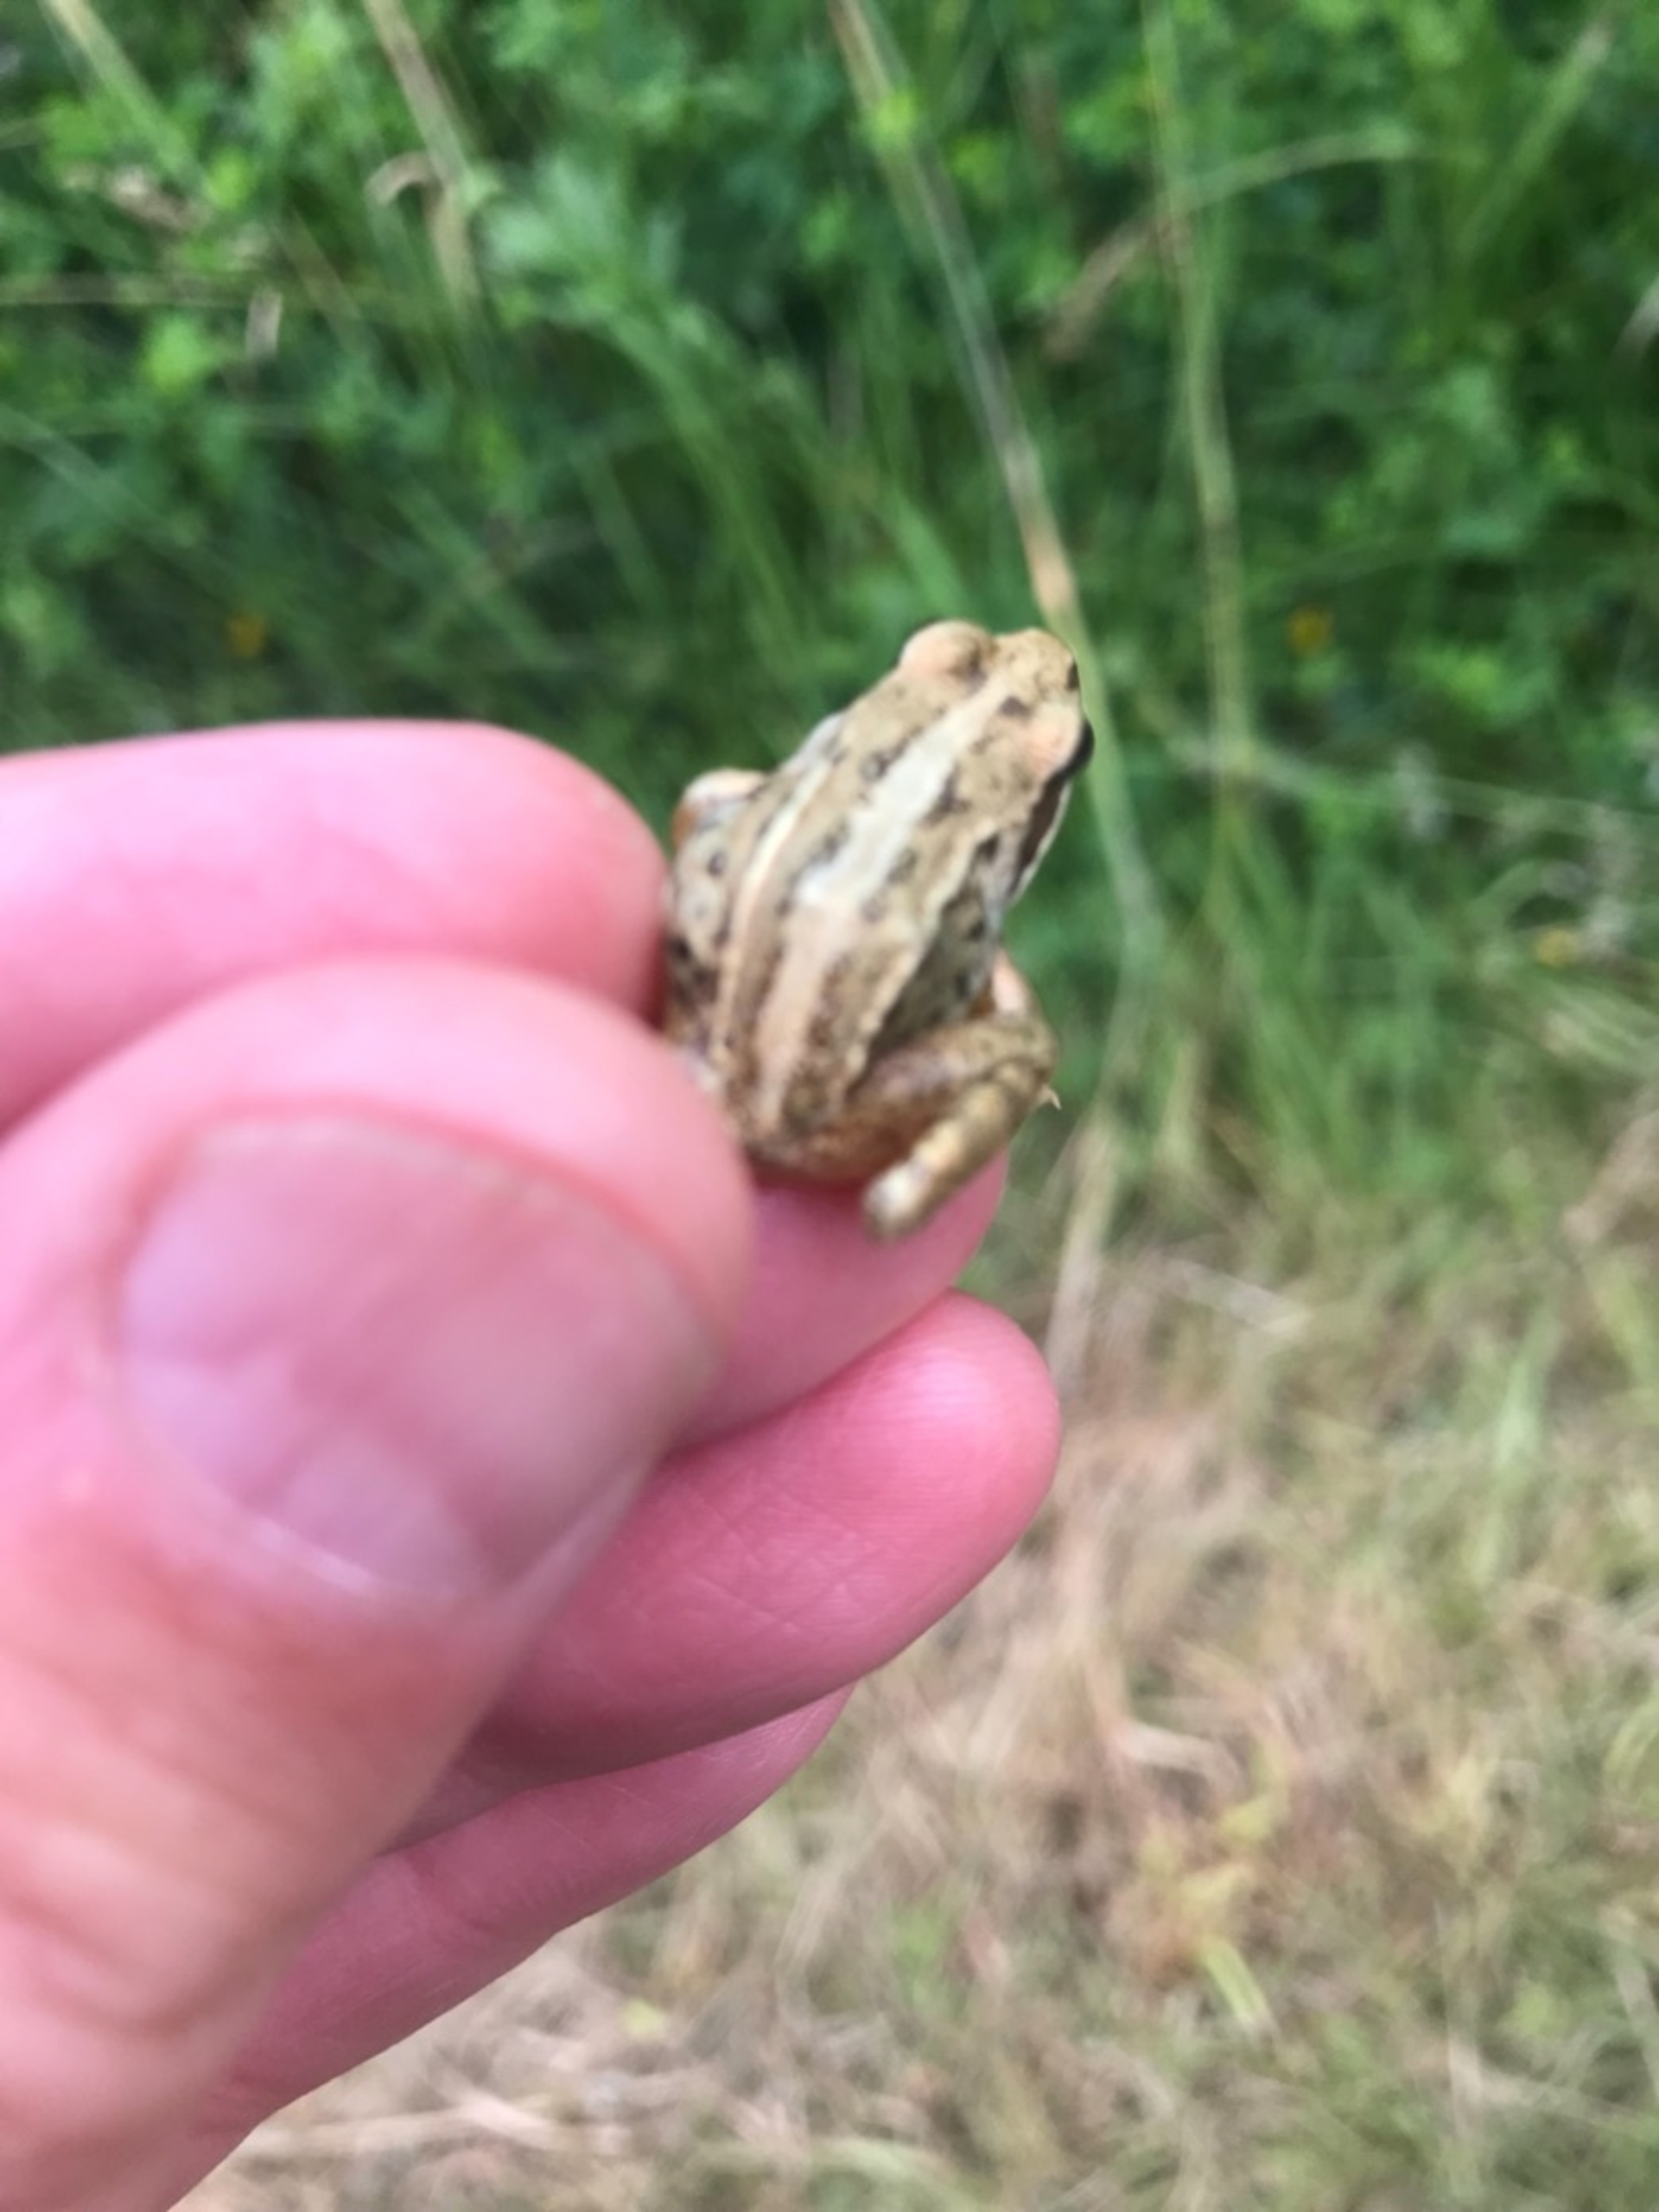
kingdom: Animalia
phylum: Chordata
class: Amphibia
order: Anura
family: Ranidae
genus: Rana
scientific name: Rana arvalis
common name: Spidssnudet frø
